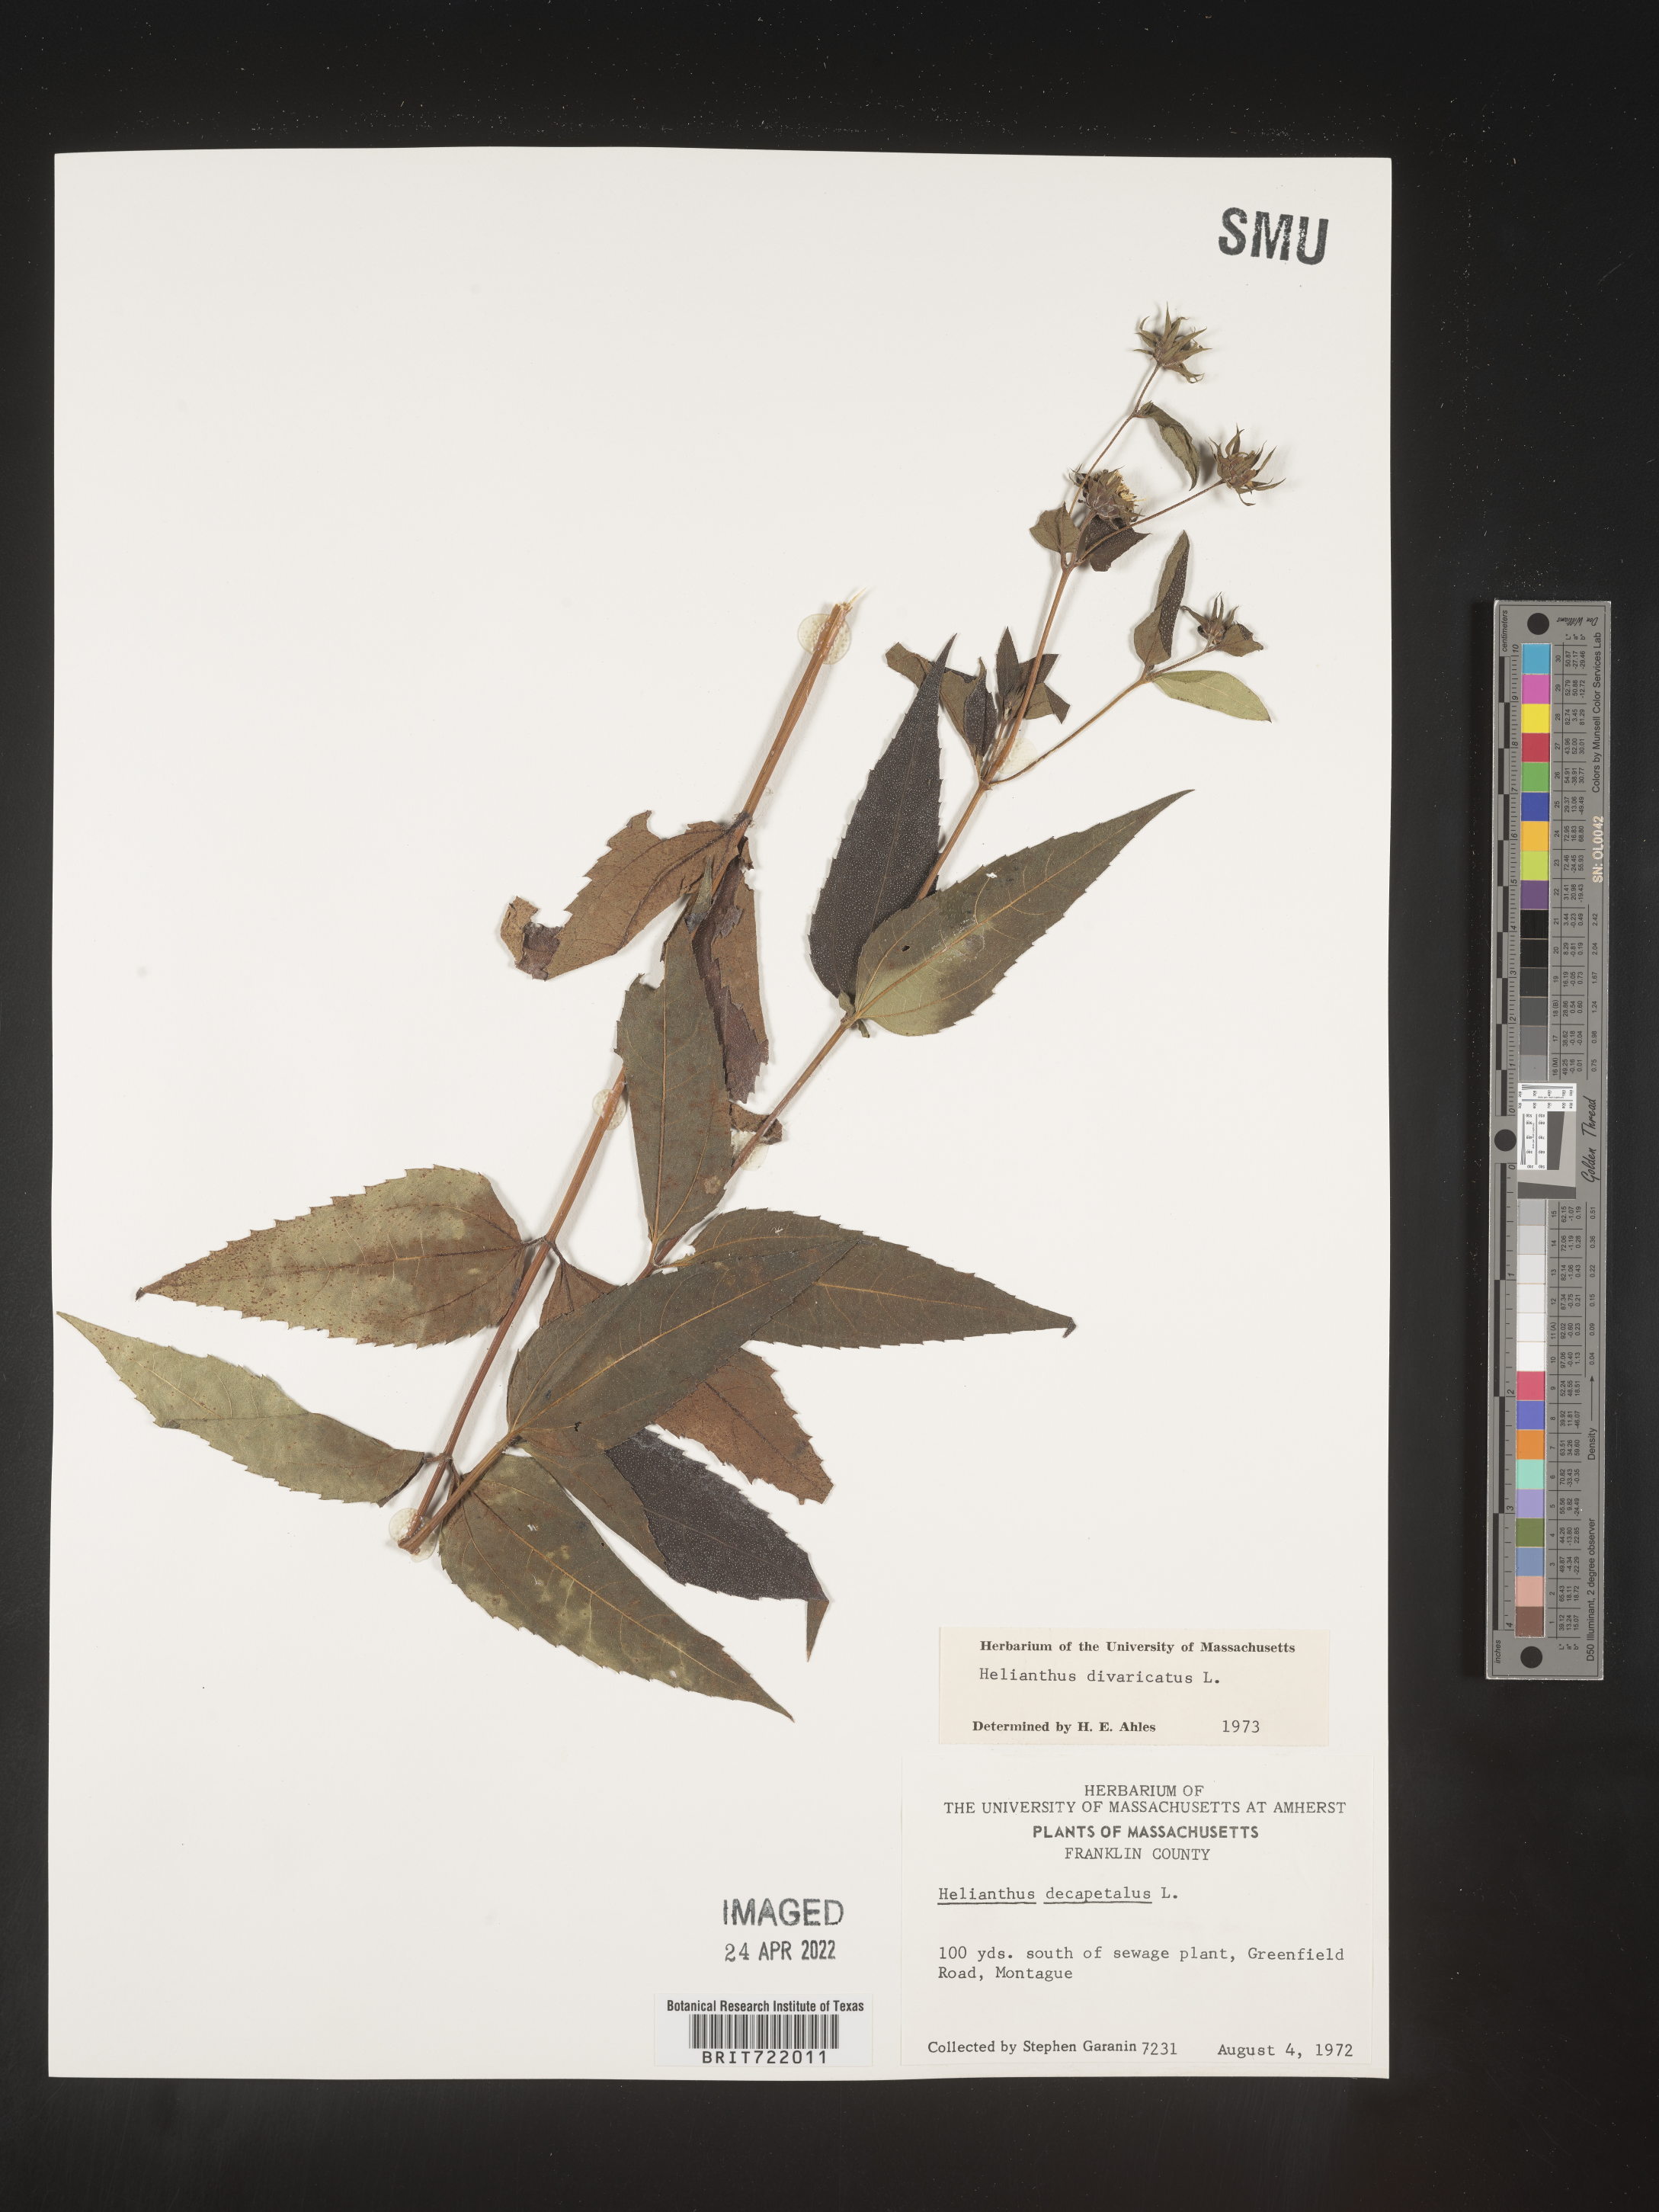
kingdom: Plantae
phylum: Tracheophyta
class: Magnoliopsida
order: Asterales
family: Asteraceae
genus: Helianthus
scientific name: Helianthus divaricatus
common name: Divergent sunflower
